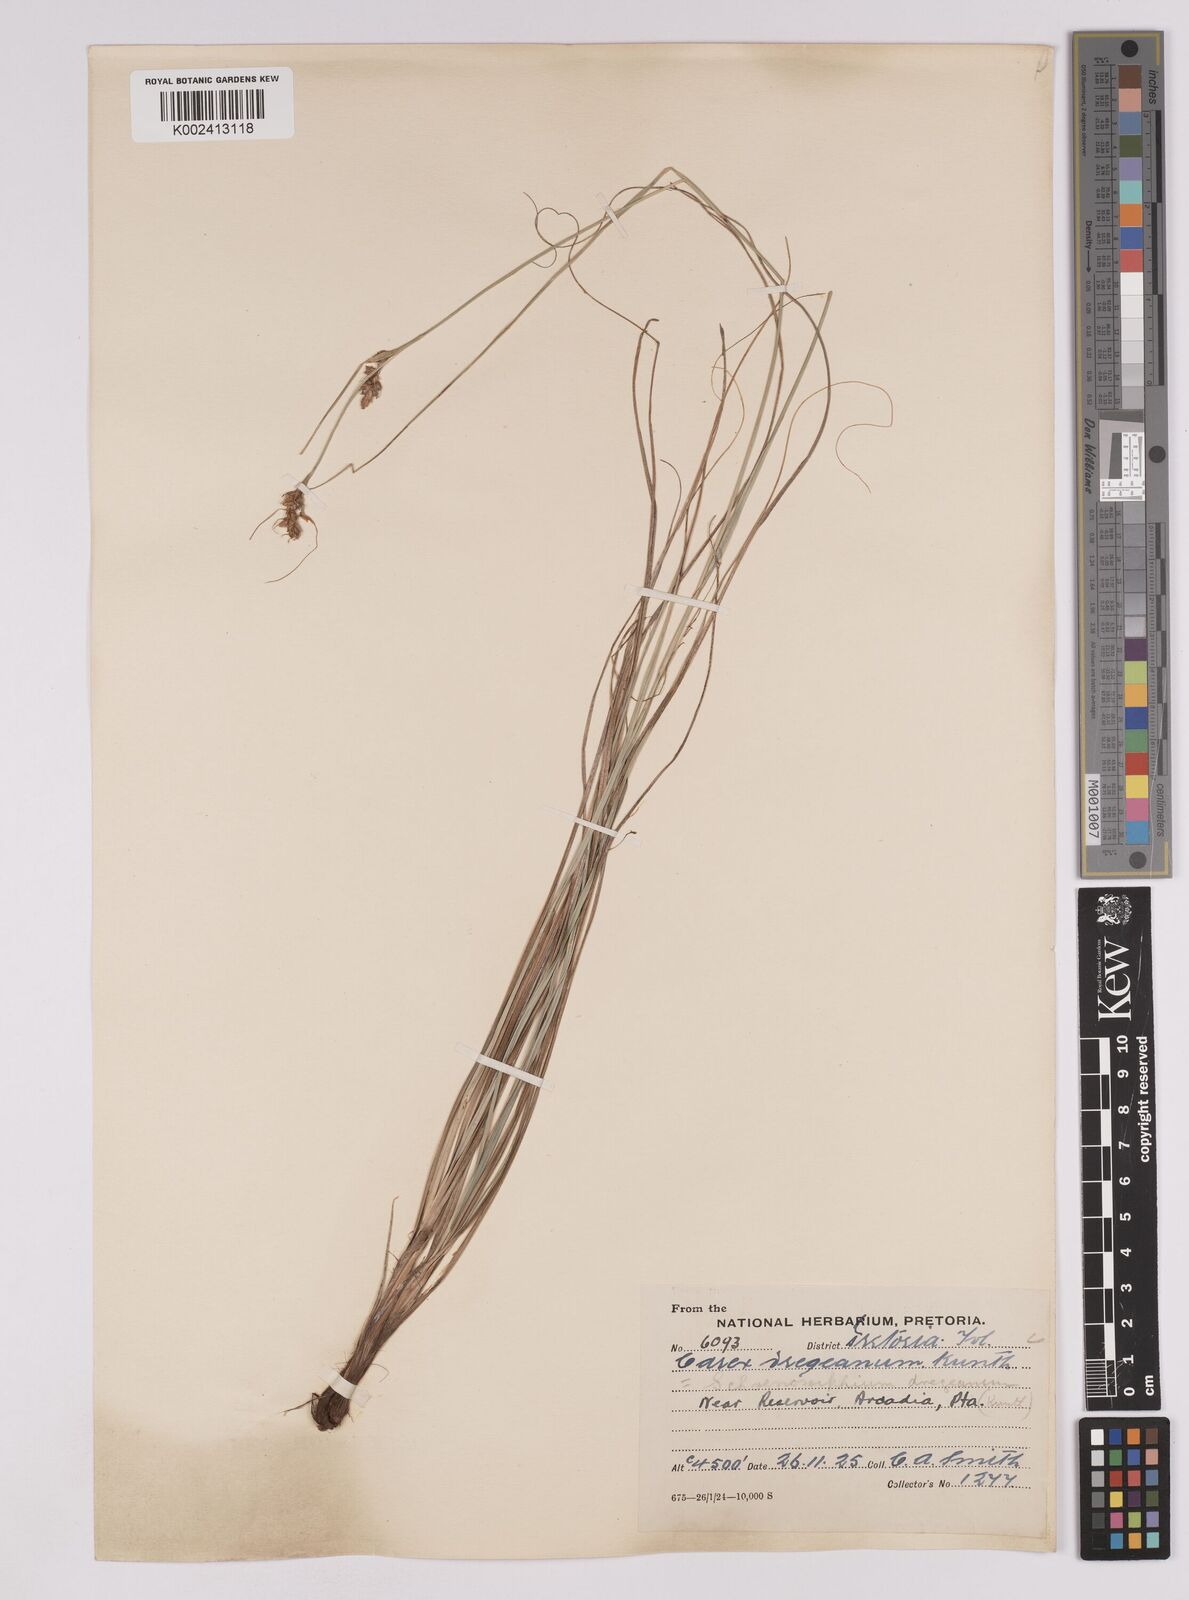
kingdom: Plantae
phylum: Tracheophyta
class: Liliopsida
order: Poales
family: Cyperaceae
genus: Carex
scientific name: Carex spartea
